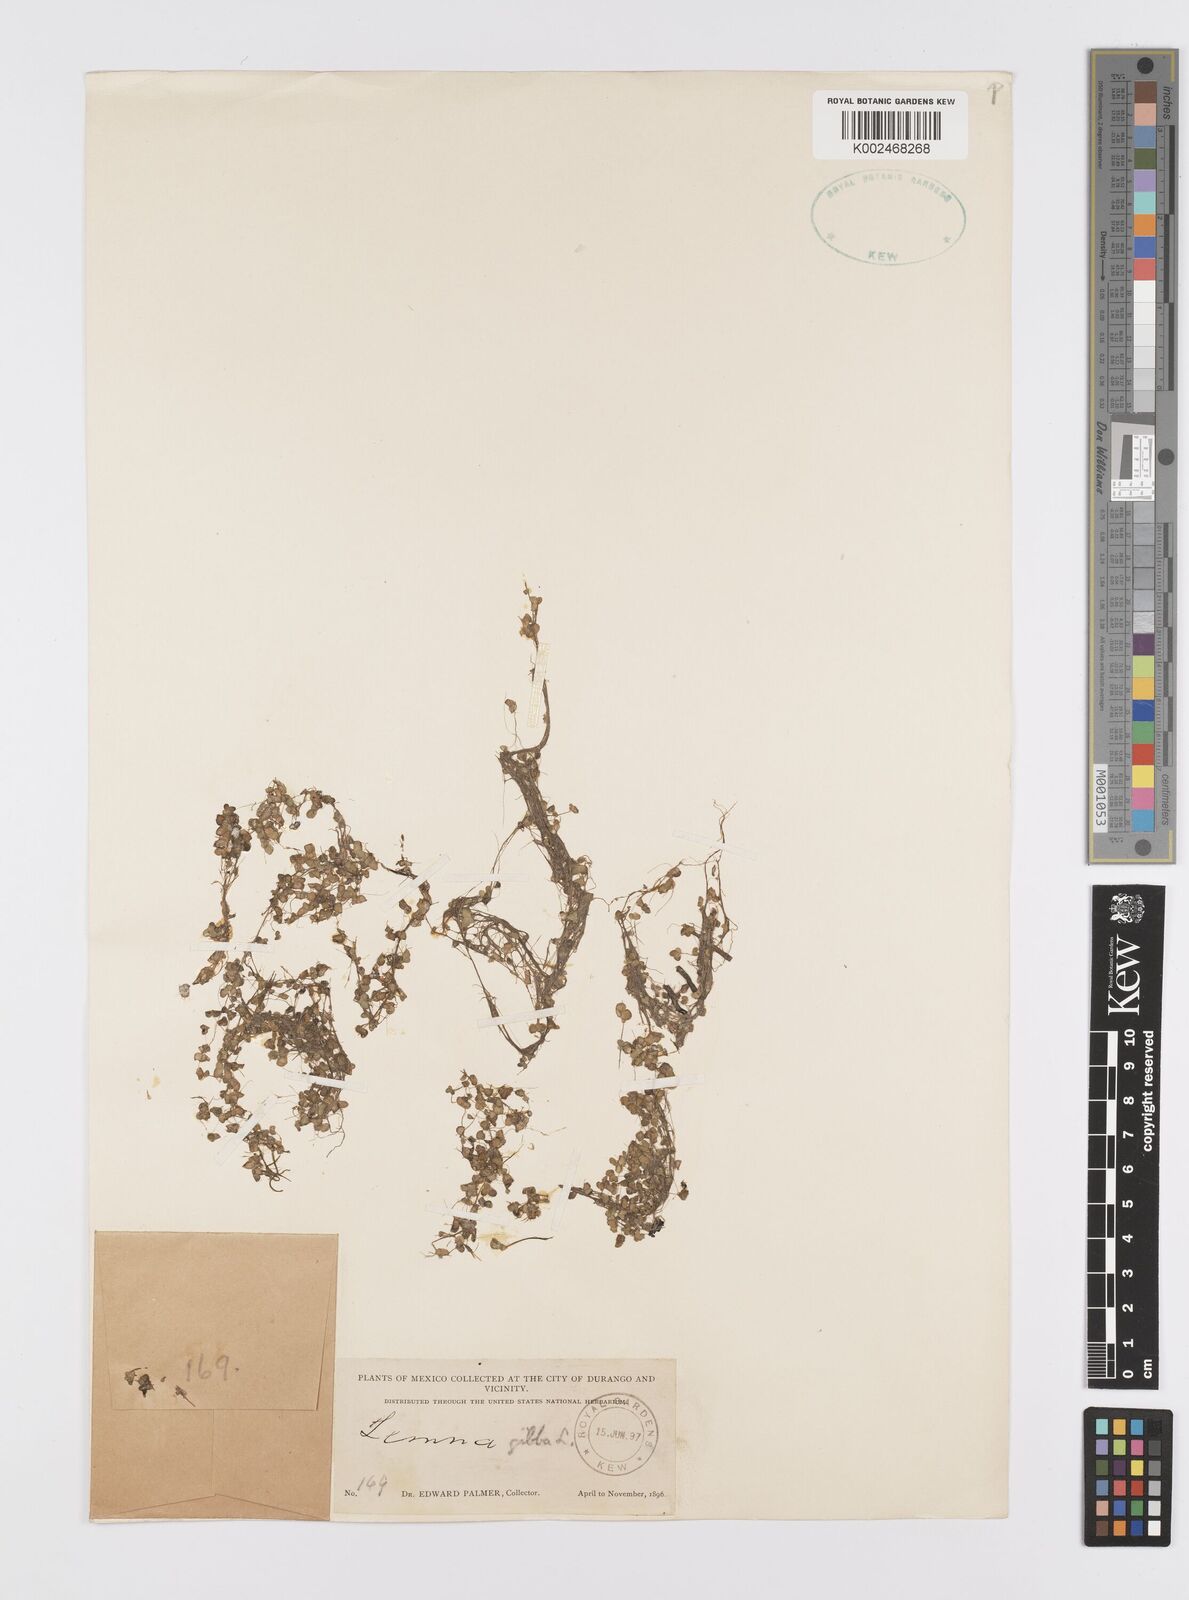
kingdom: Plantae
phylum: Tracheophyta
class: Liliopsida
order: Alismatales
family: Araceae
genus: Lemna
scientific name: Lemna gibba
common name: Fat duckweed
